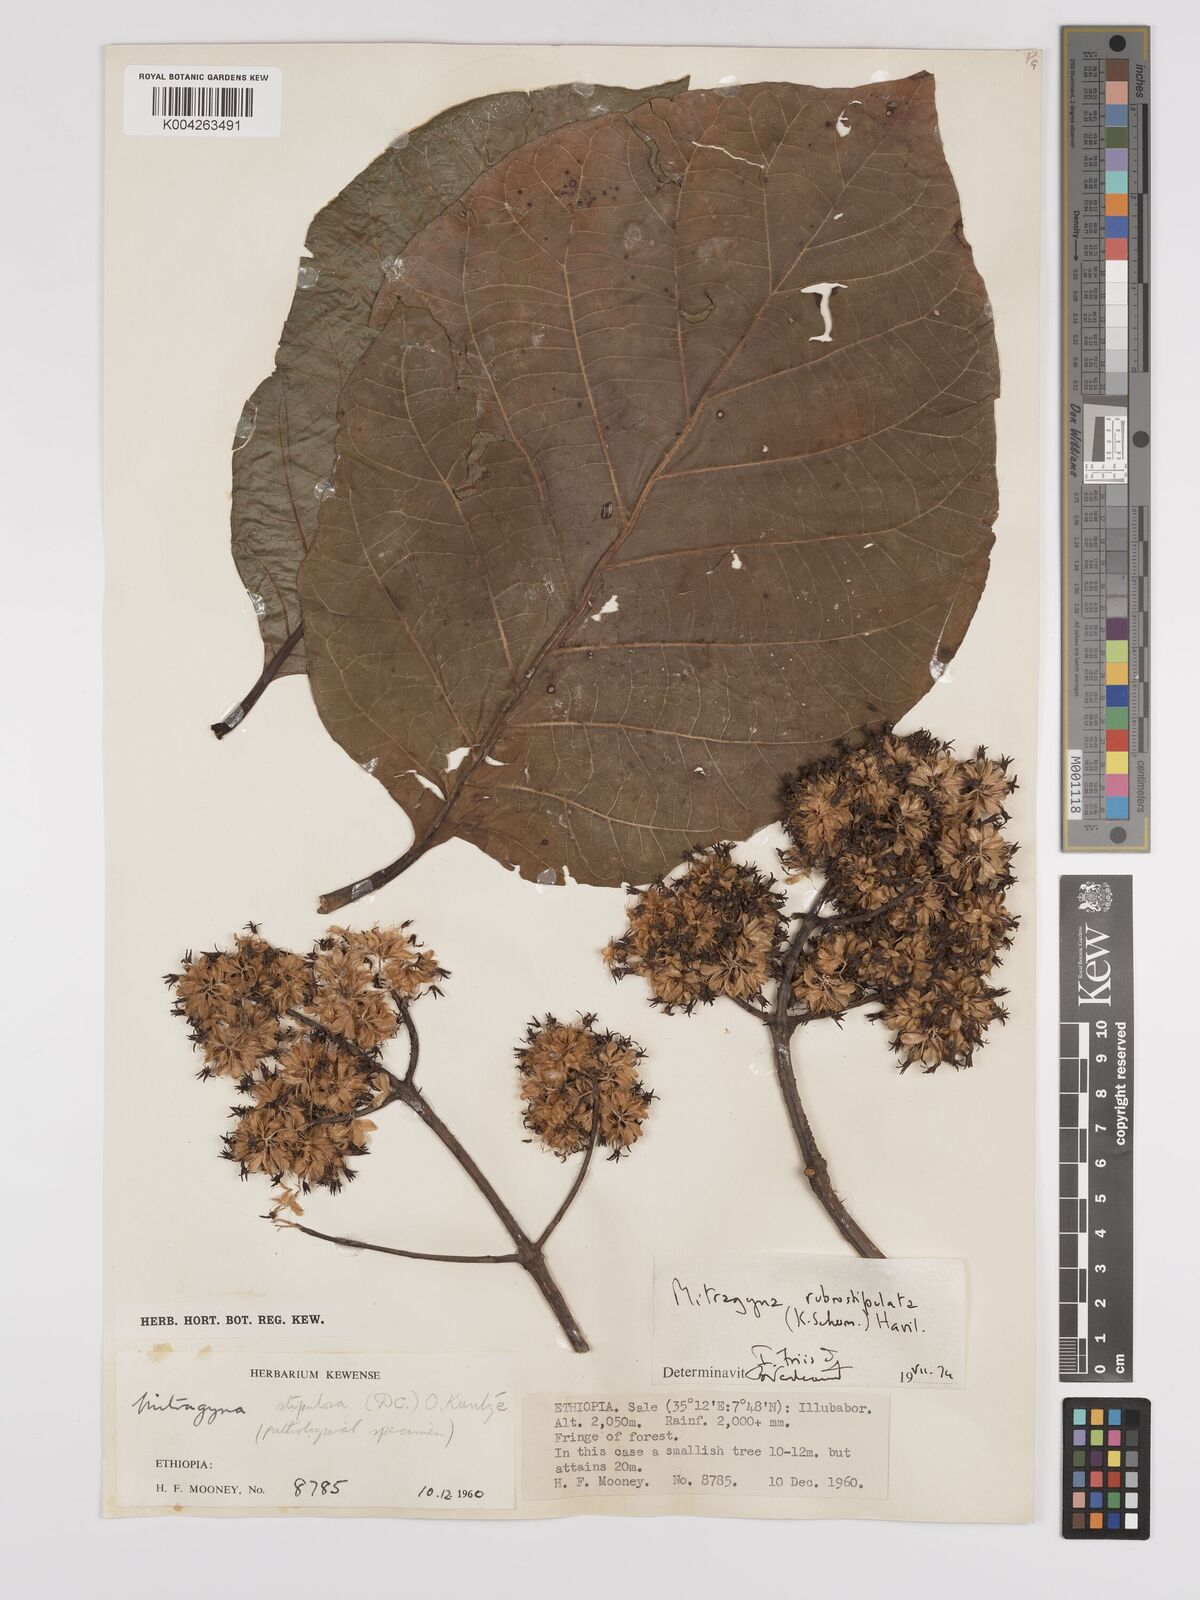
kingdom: Plantae
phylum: Tracheophyta
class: Magnoliopsida
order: Gentianales
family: Rubiaceae
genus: Mitragyna
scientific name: Mitragyna rubrostipulata
